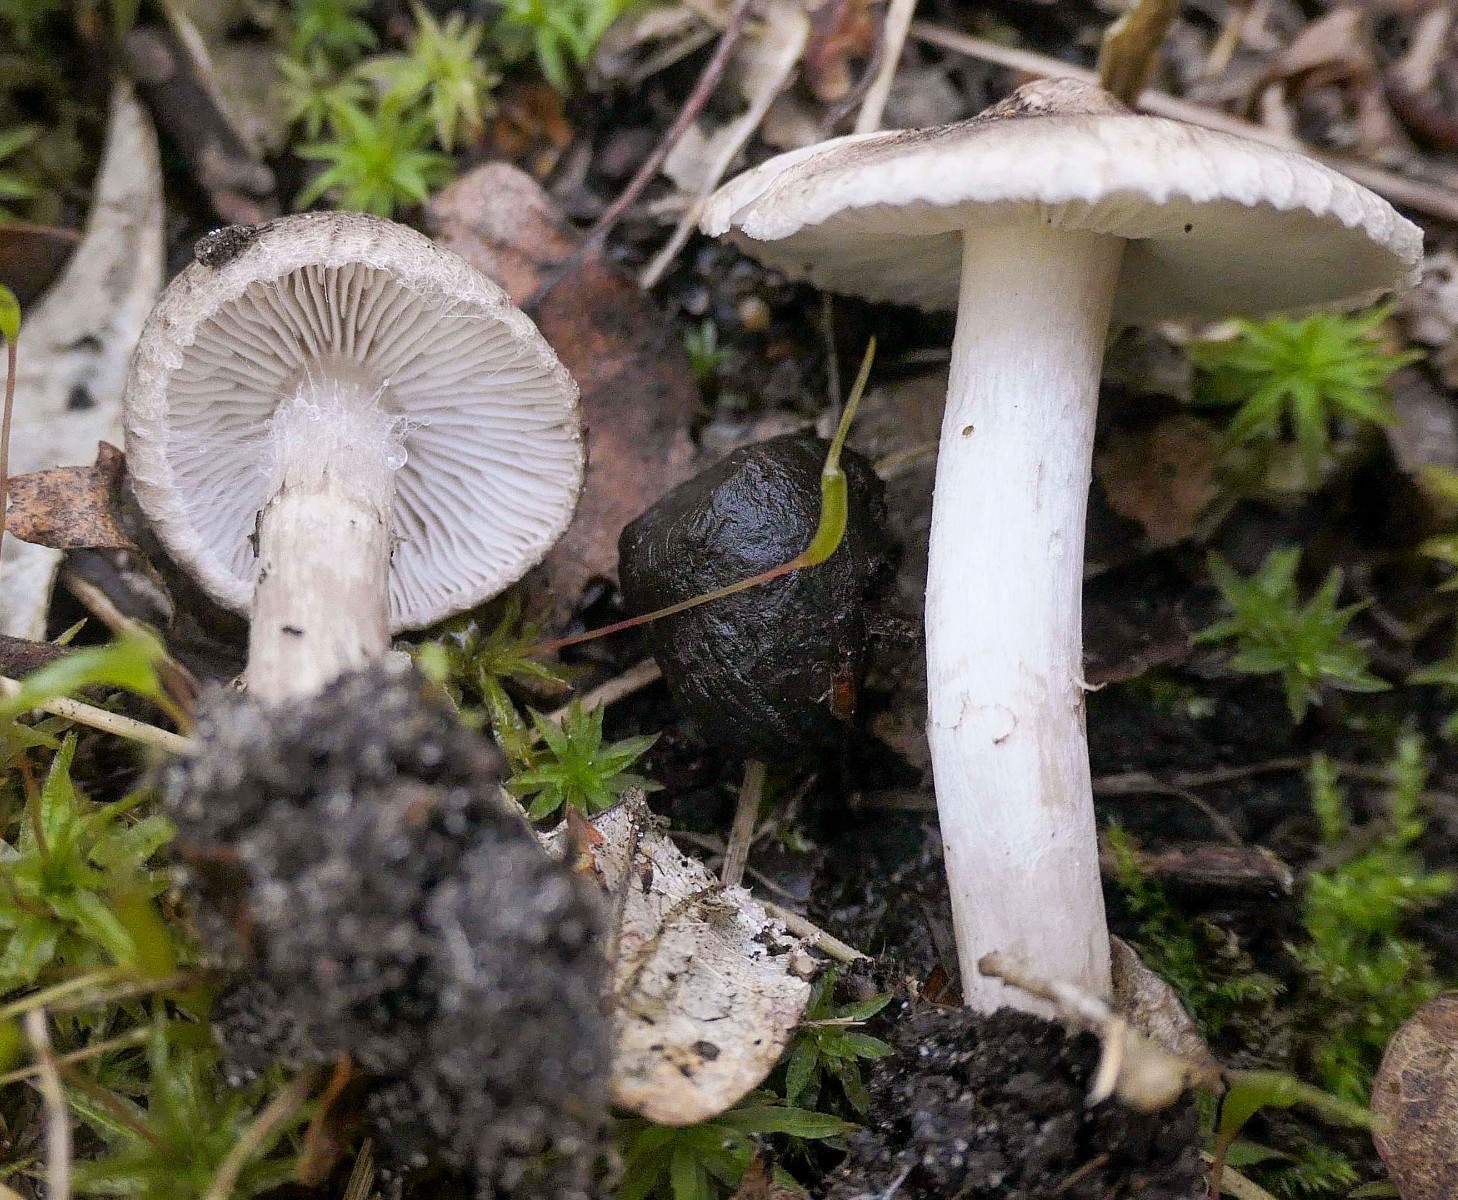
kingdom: Fungi
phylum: Basidiomycota
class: Agaricomycetes
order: Agaricales
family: Tricholomataceae
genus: Tricholoma
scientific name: Tricholoma argyraceum
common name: slør-ridderhat
